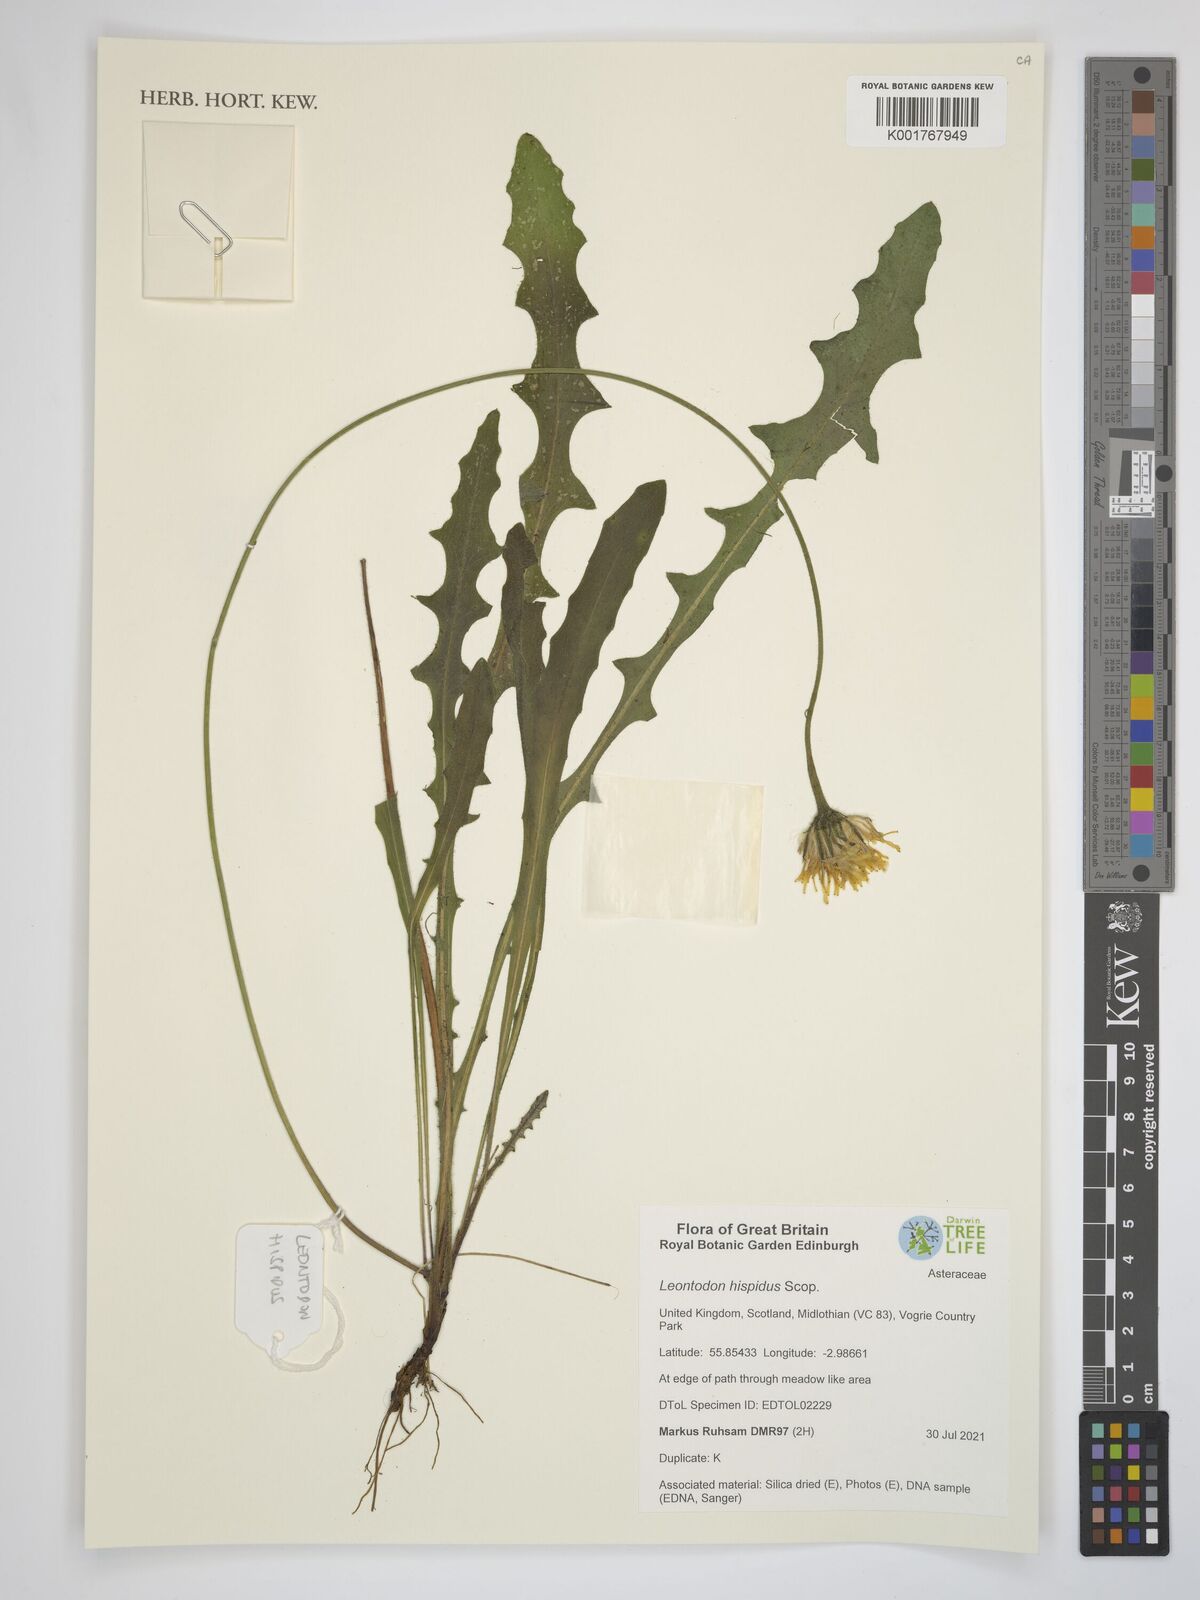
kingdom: Plantae
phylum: Tracheophyta
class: Magnoliopsida
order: Asterales
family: Asteraceae
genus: Leontodon
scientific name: Leontodon crispus
